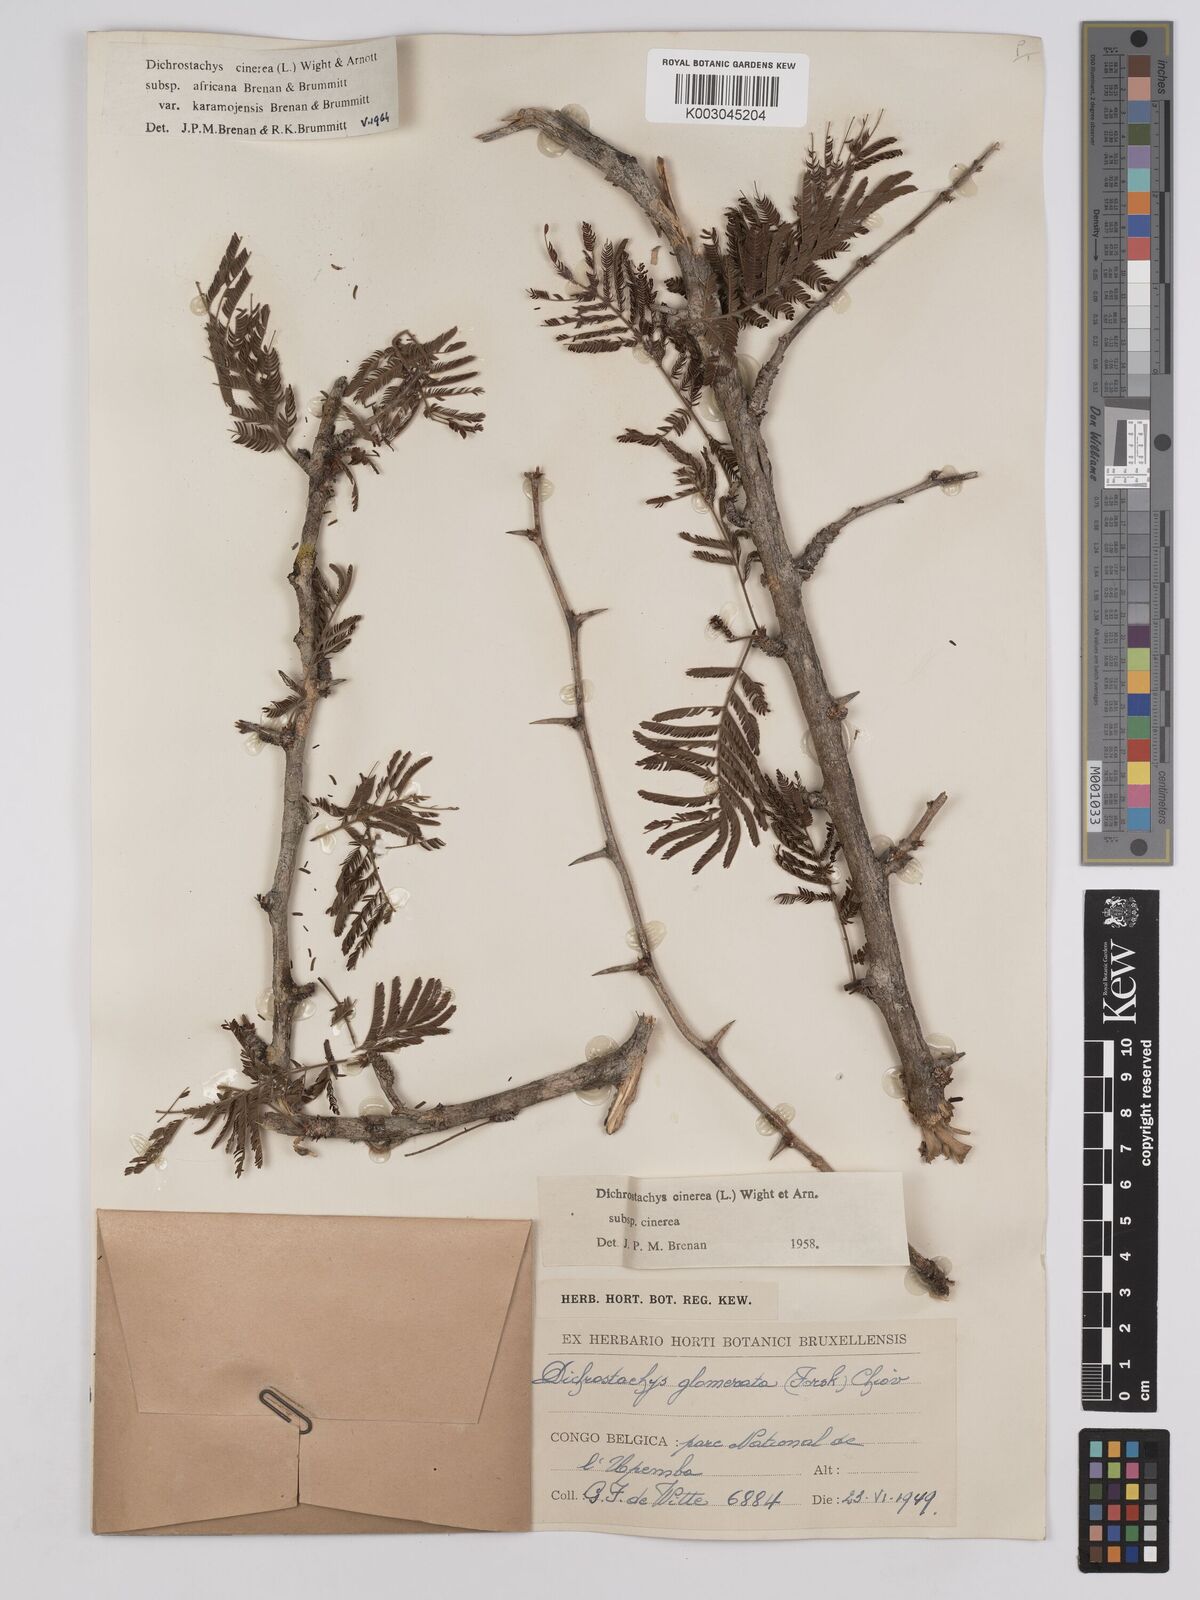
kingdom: Plantae
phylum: Tracheophyta
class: Magnoliopsida
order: Fabales
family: Fabaceae
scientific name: Fabaceae
